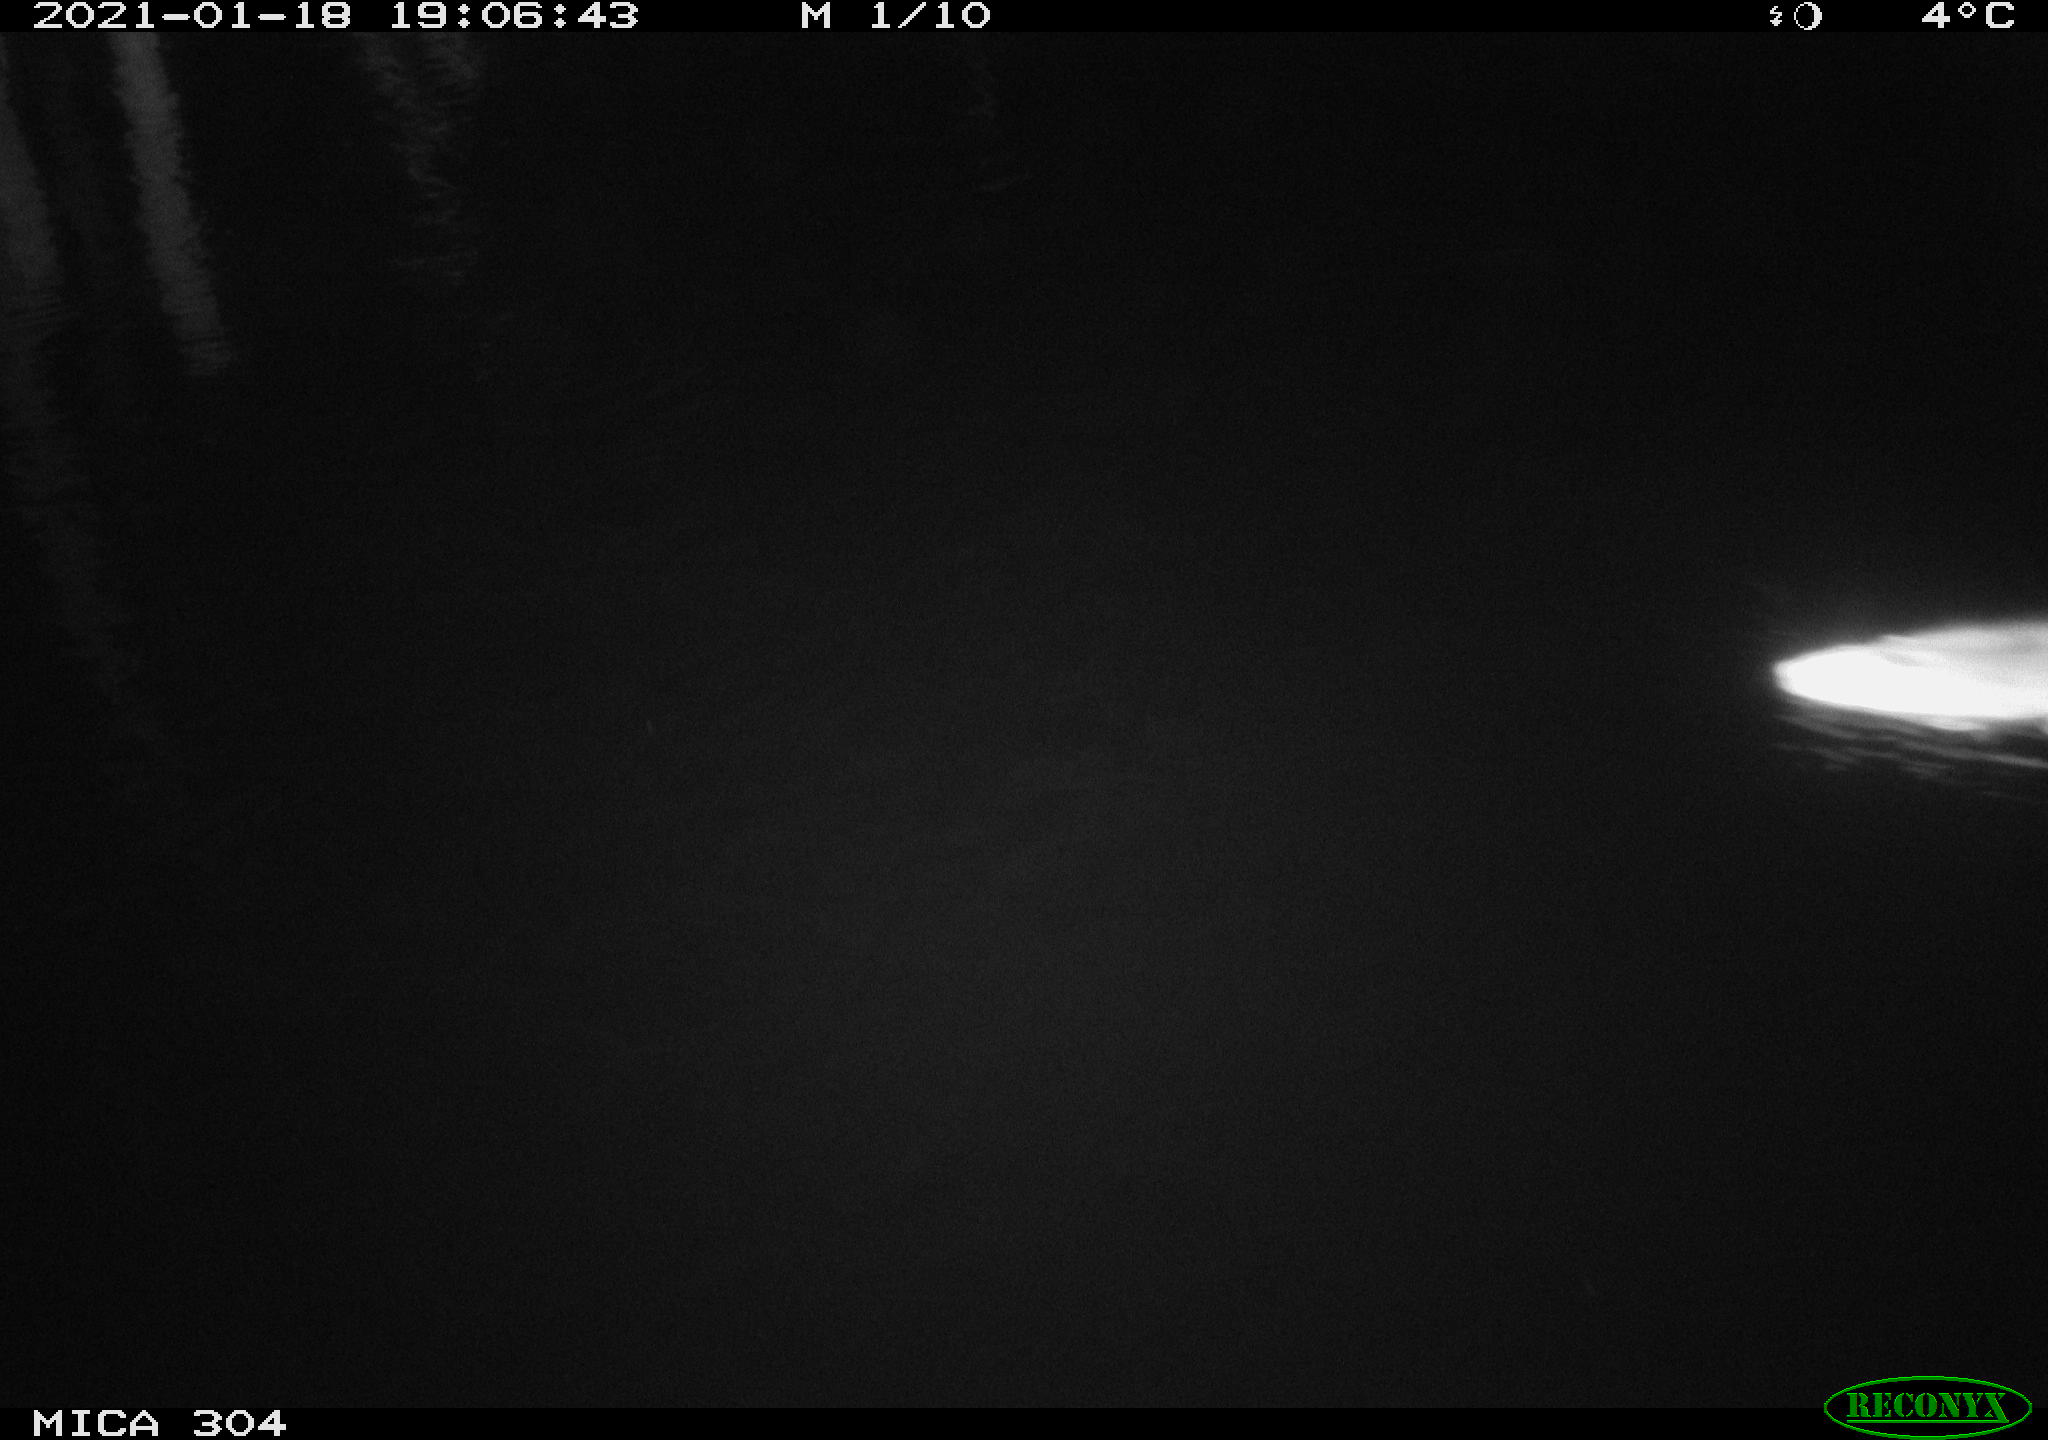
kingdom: Animalia
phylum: Chordata
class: Mammalia
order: Rodentia
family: Muridae
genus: Rattus
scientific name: Rattus norvegicus
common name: Brown rat
